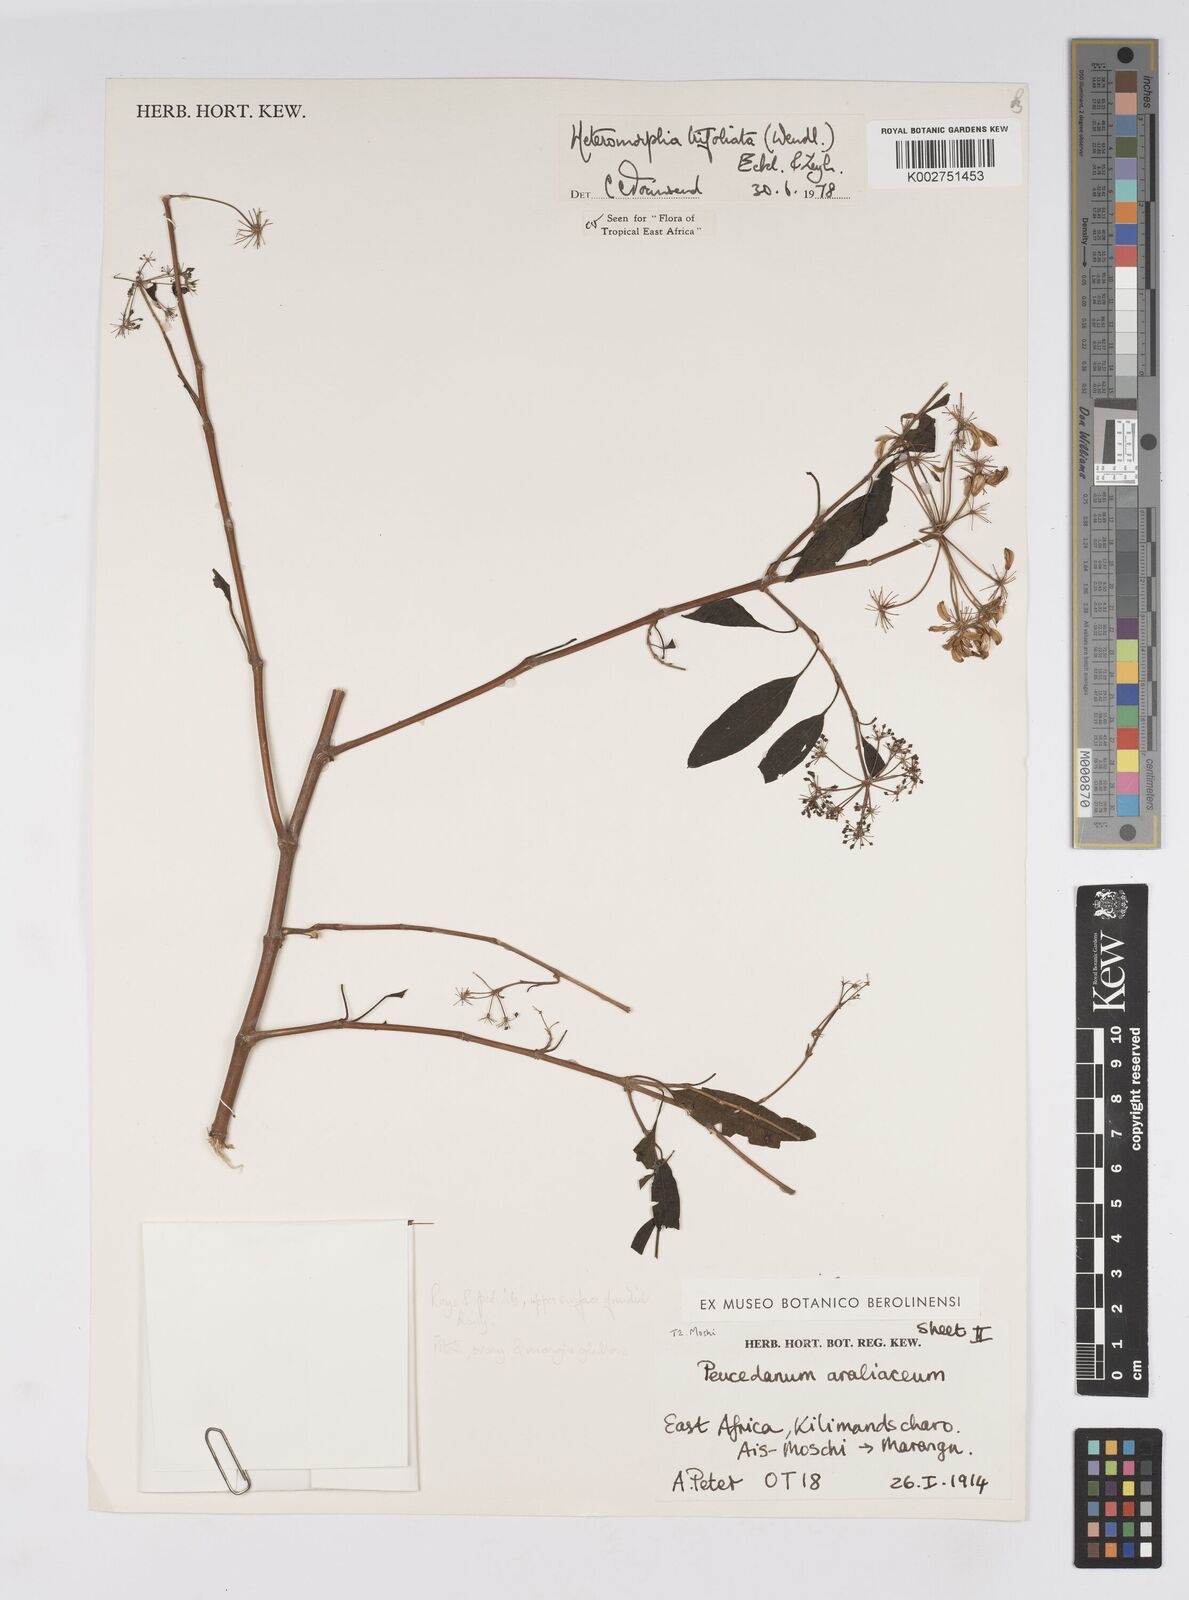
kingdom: Plantae
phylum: Tracheophyta
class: Magnoliopsida
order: Apiales
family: Apiaceae
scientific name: Apiaceae
